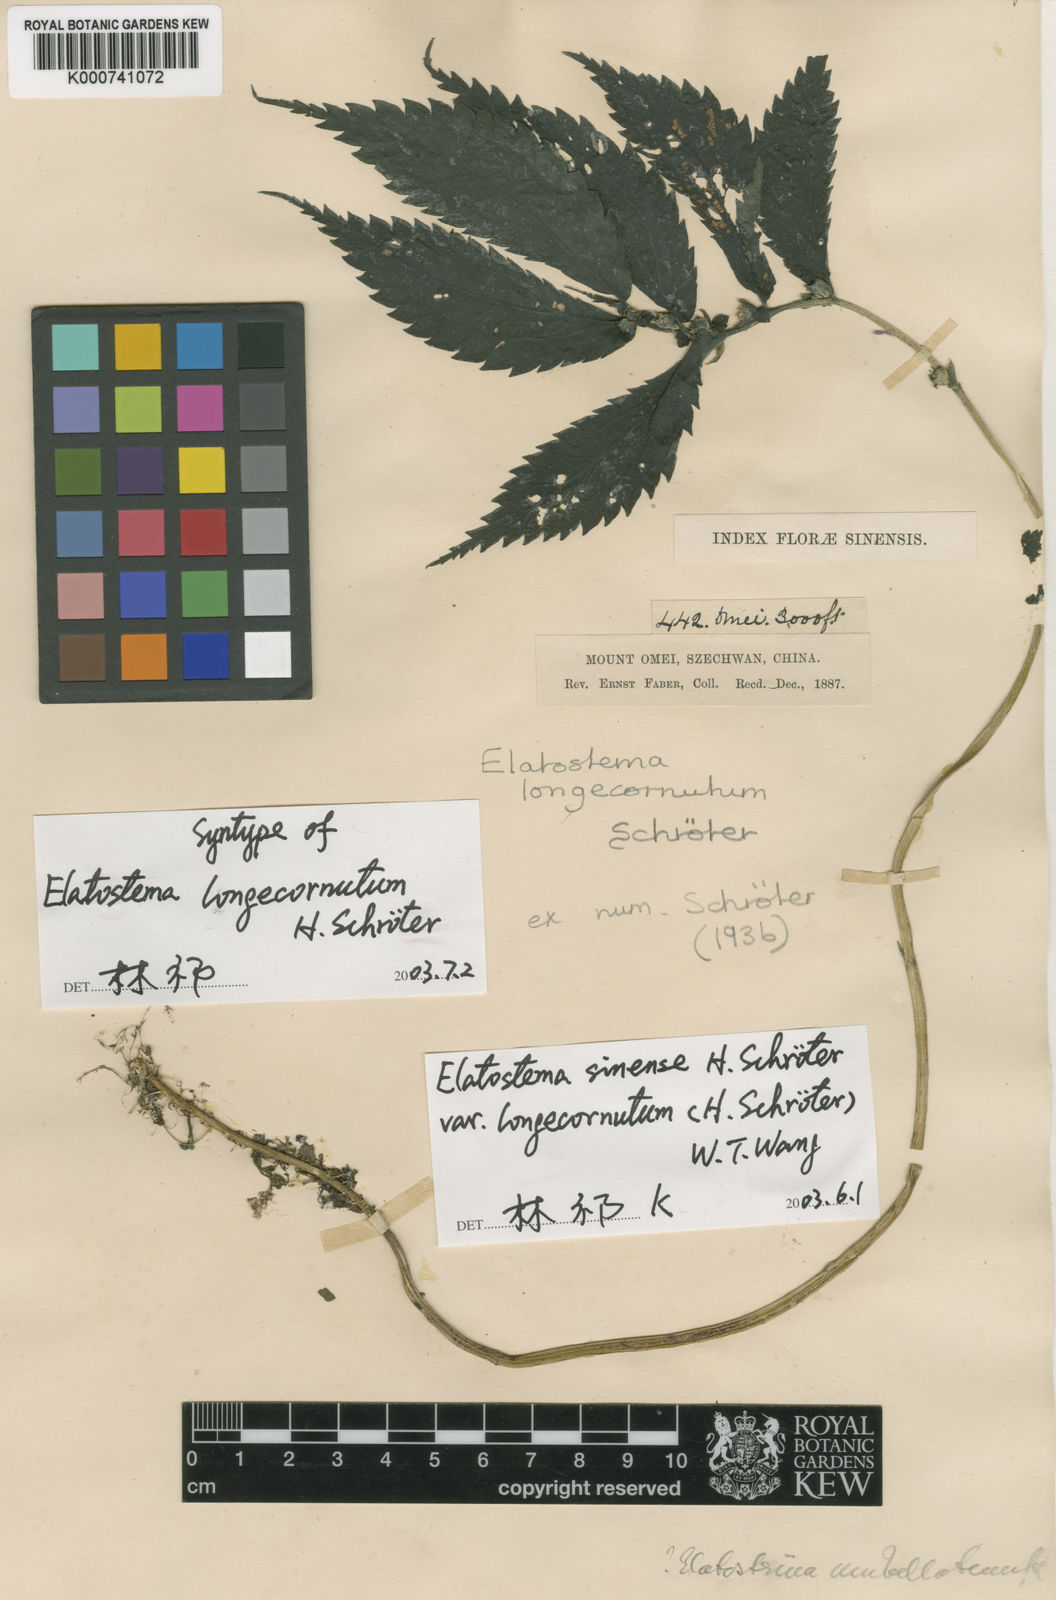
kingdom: Plantae
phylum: Tracheophyta
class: Magnoliopsida
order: Rosales
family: Urticaceae
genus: Elatostema
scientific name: Elatostema sinense
